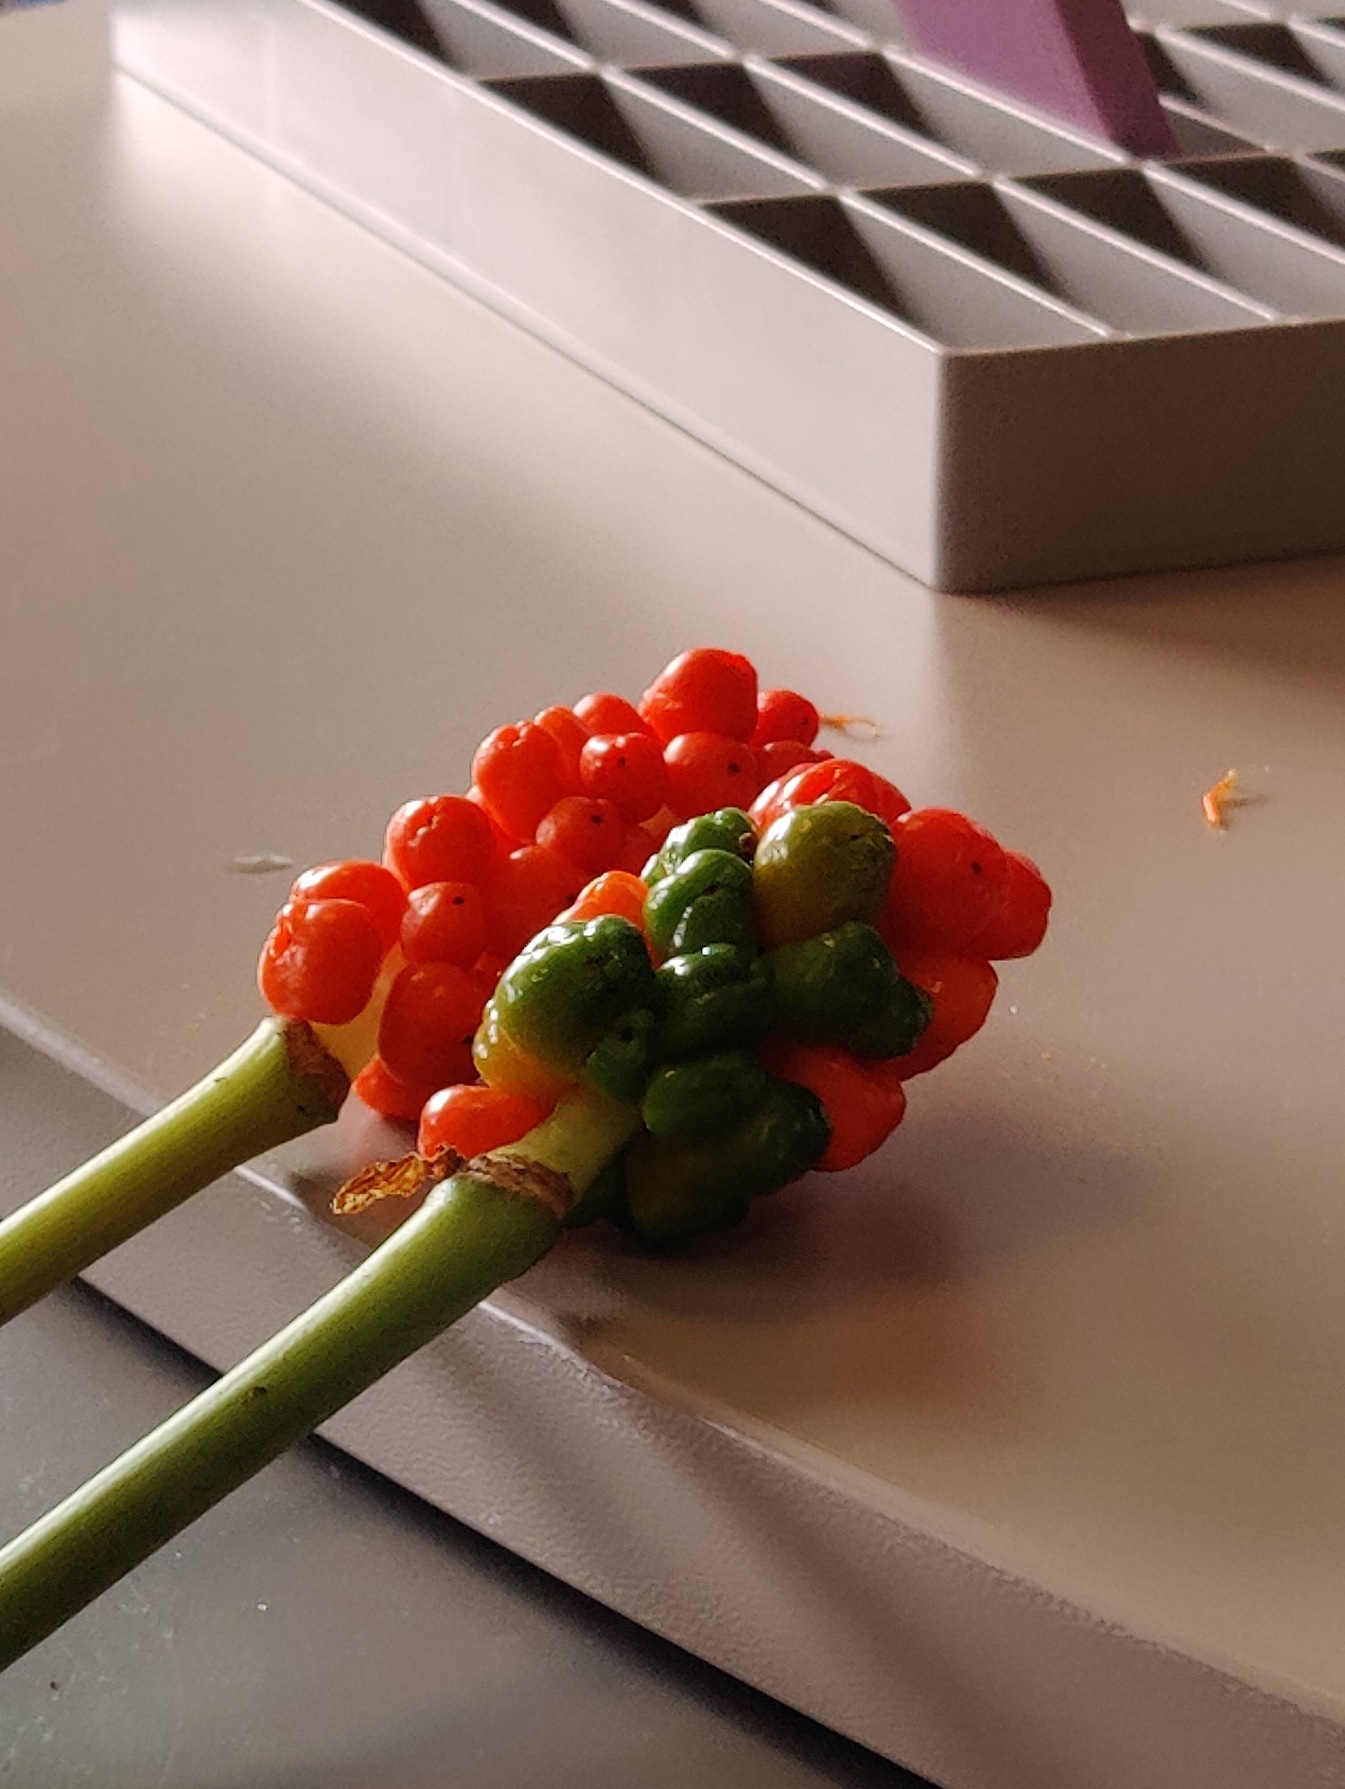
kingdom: Plantae
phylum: Tracheophyta
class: Liliopsida
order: Alismatales
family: Araceae
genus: Arum
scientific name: Arum
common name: Arumslægten
